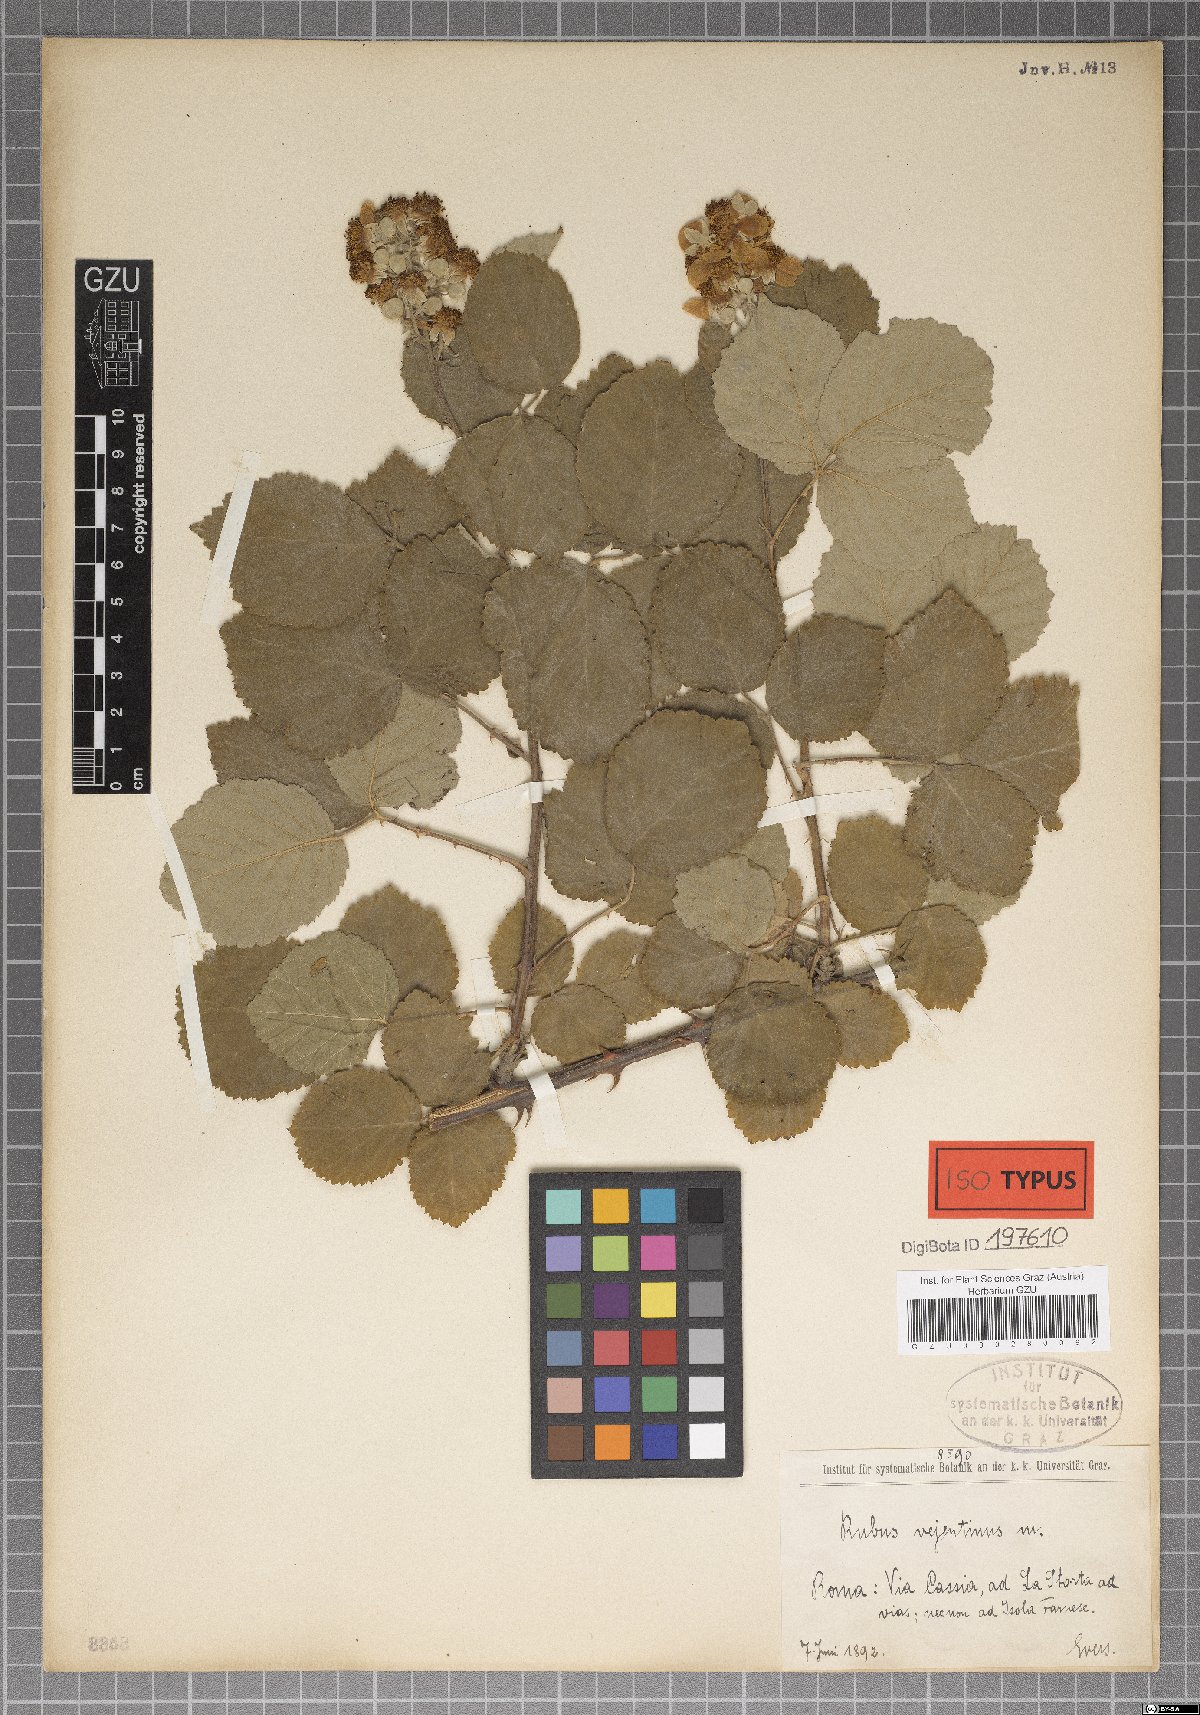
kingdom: Plantae
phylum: Tracheophyta
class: Magnoliopsida
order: Rosales
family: Rosaceae
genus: Rubus
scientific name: Rubus vejentinus
